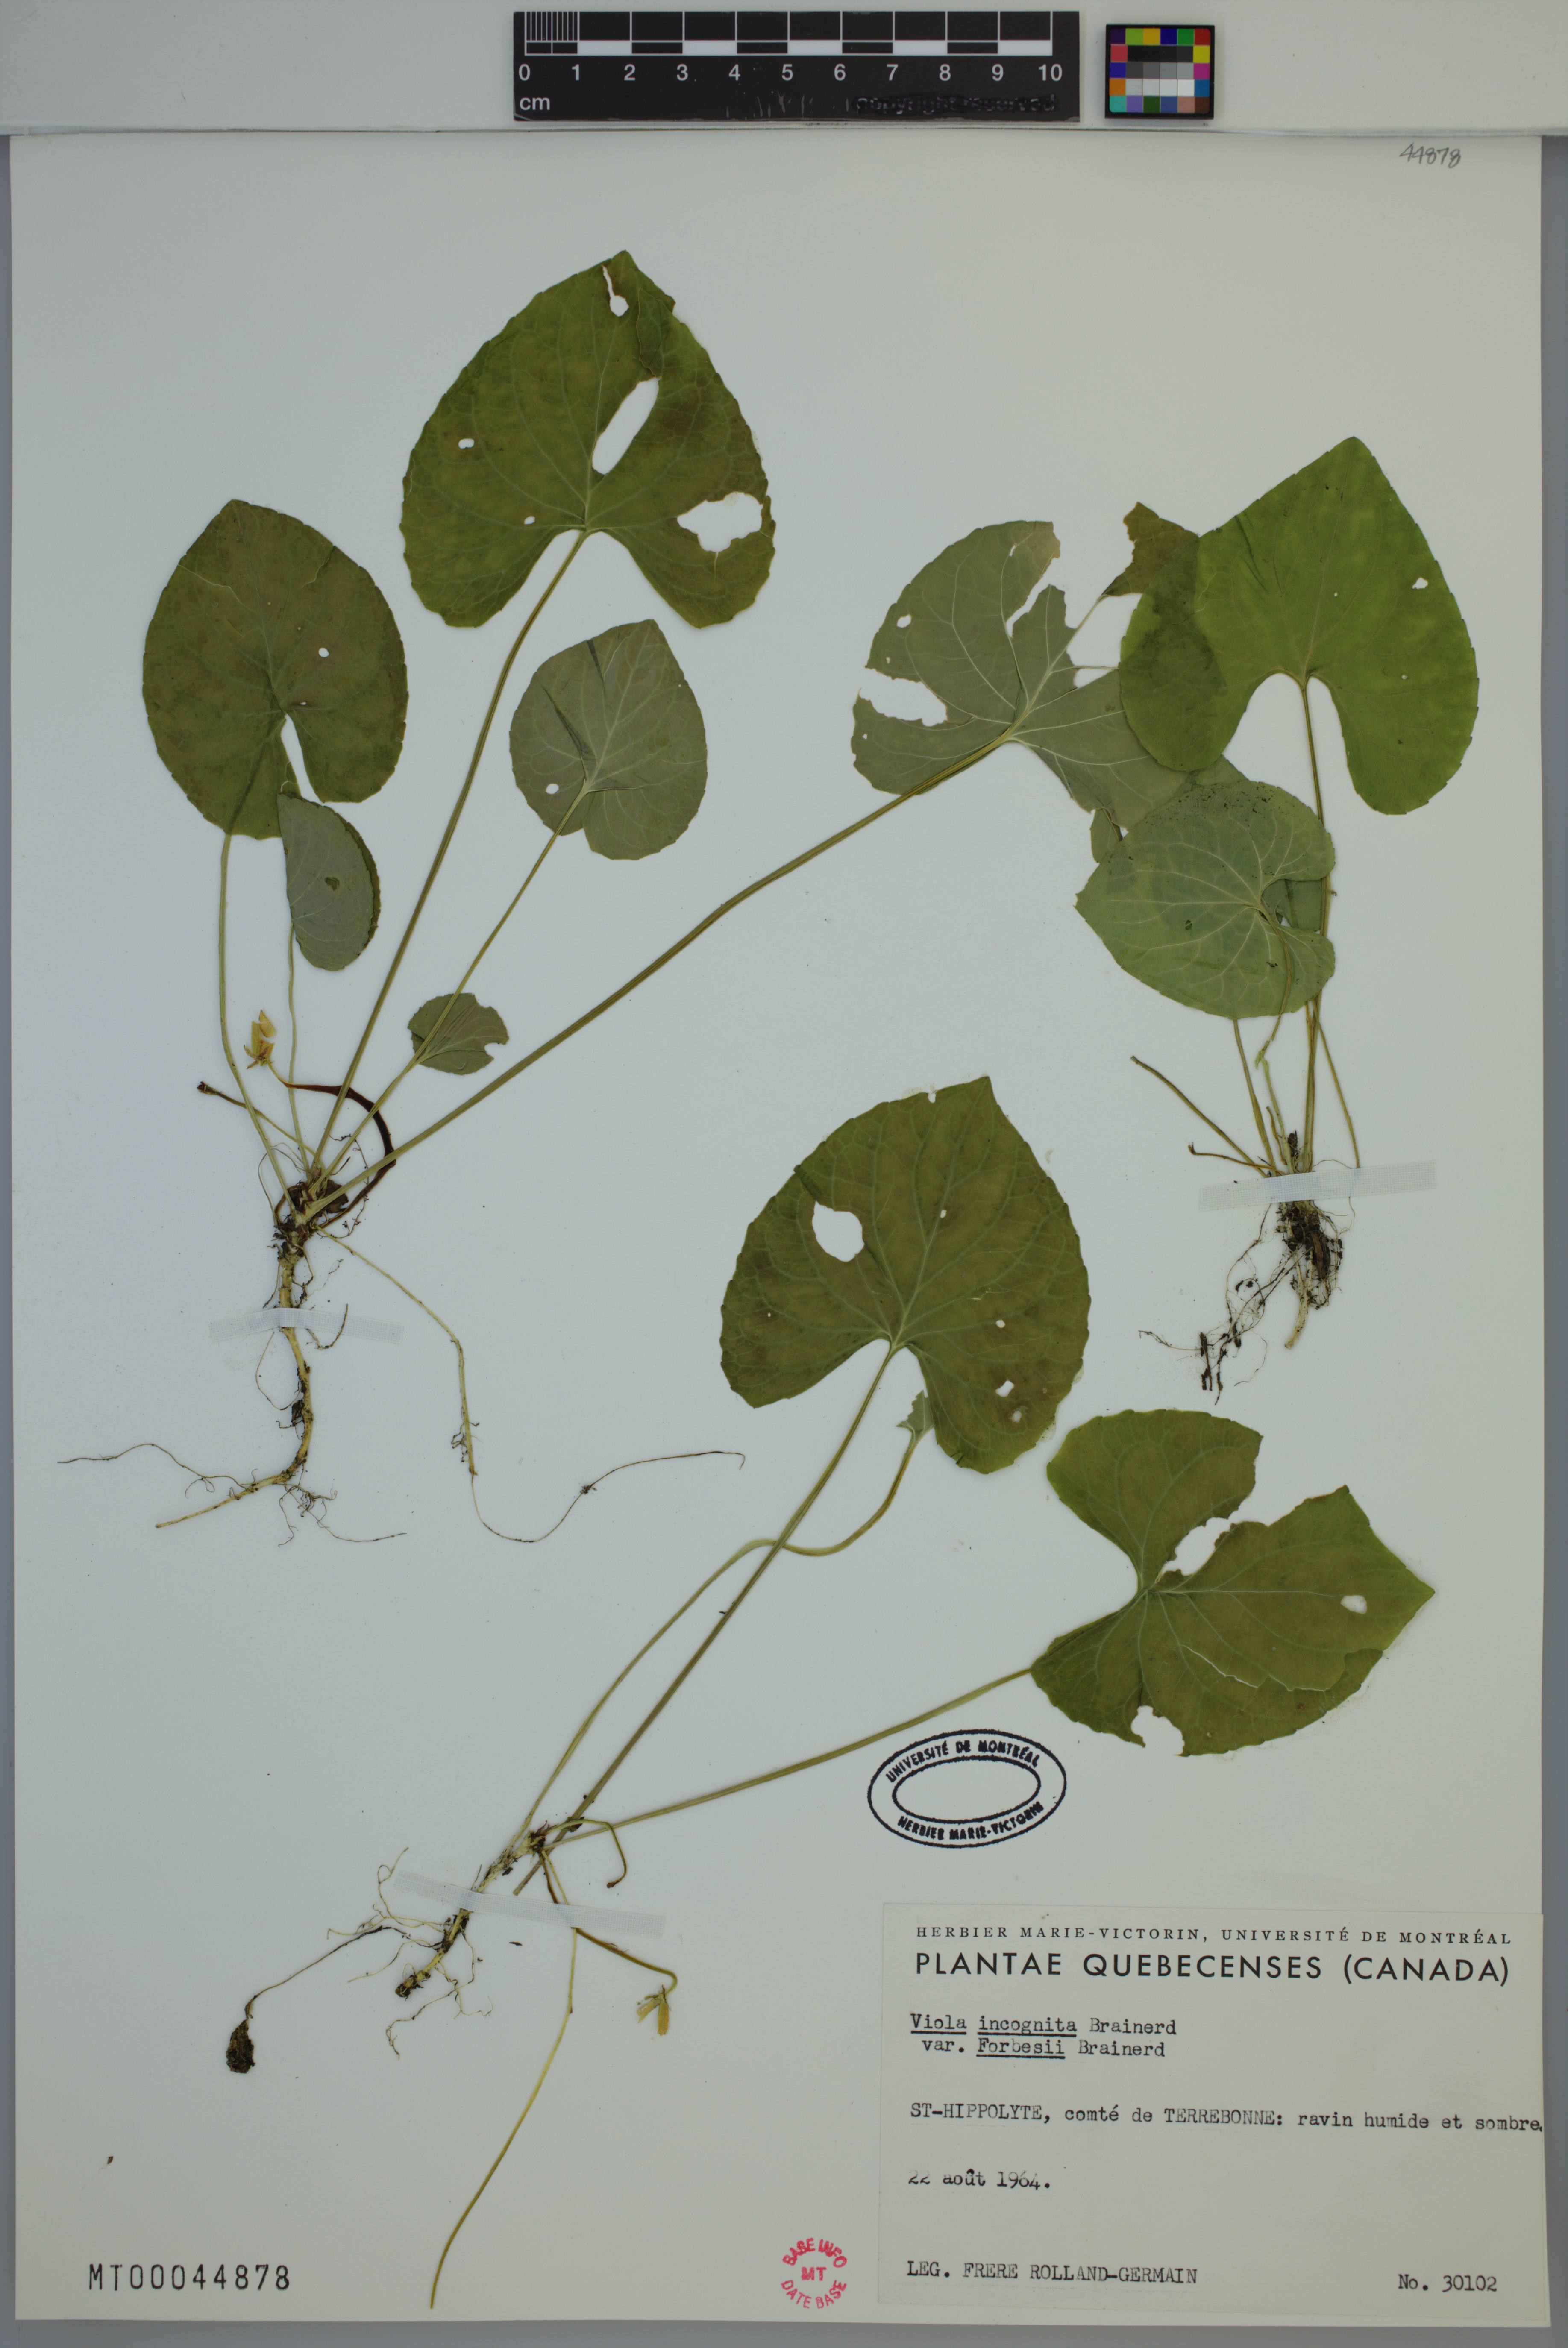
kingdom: Plantae
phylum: Tracheophyta
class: Magnoliopsida
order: Malpighiales
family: Violaceae
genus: Viola
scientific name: Viola blanda
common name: Sweet white violet
